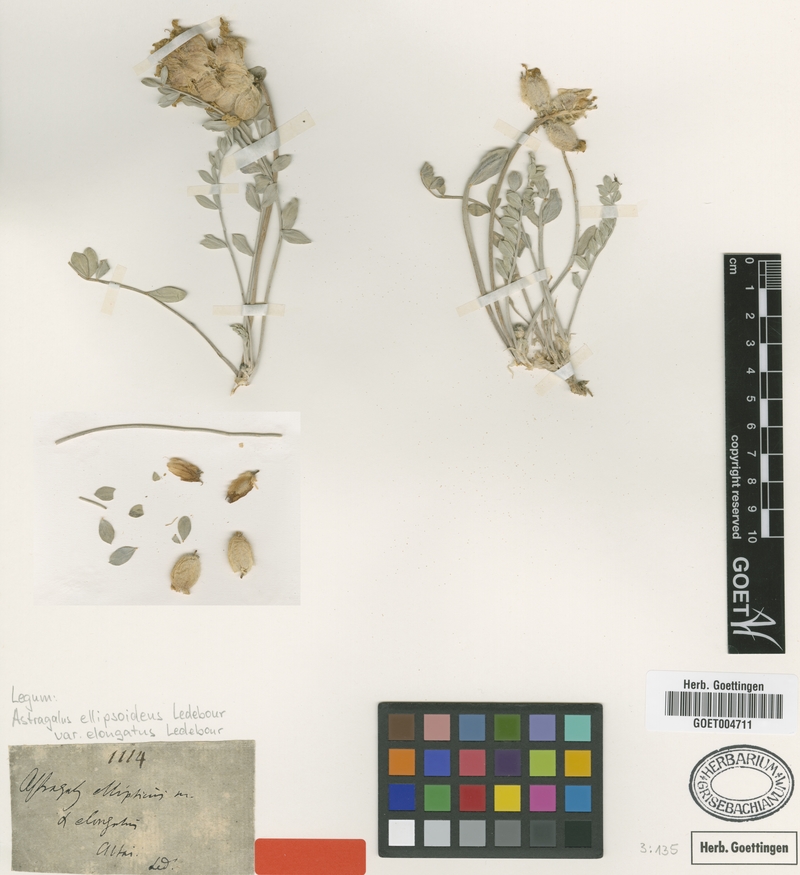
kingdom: Plantae
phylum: Tracheophyta
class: Magnoliopsida
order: Fabales
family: Fabaceae
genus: Astragalus
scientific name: Astragalus ellipsoideus
